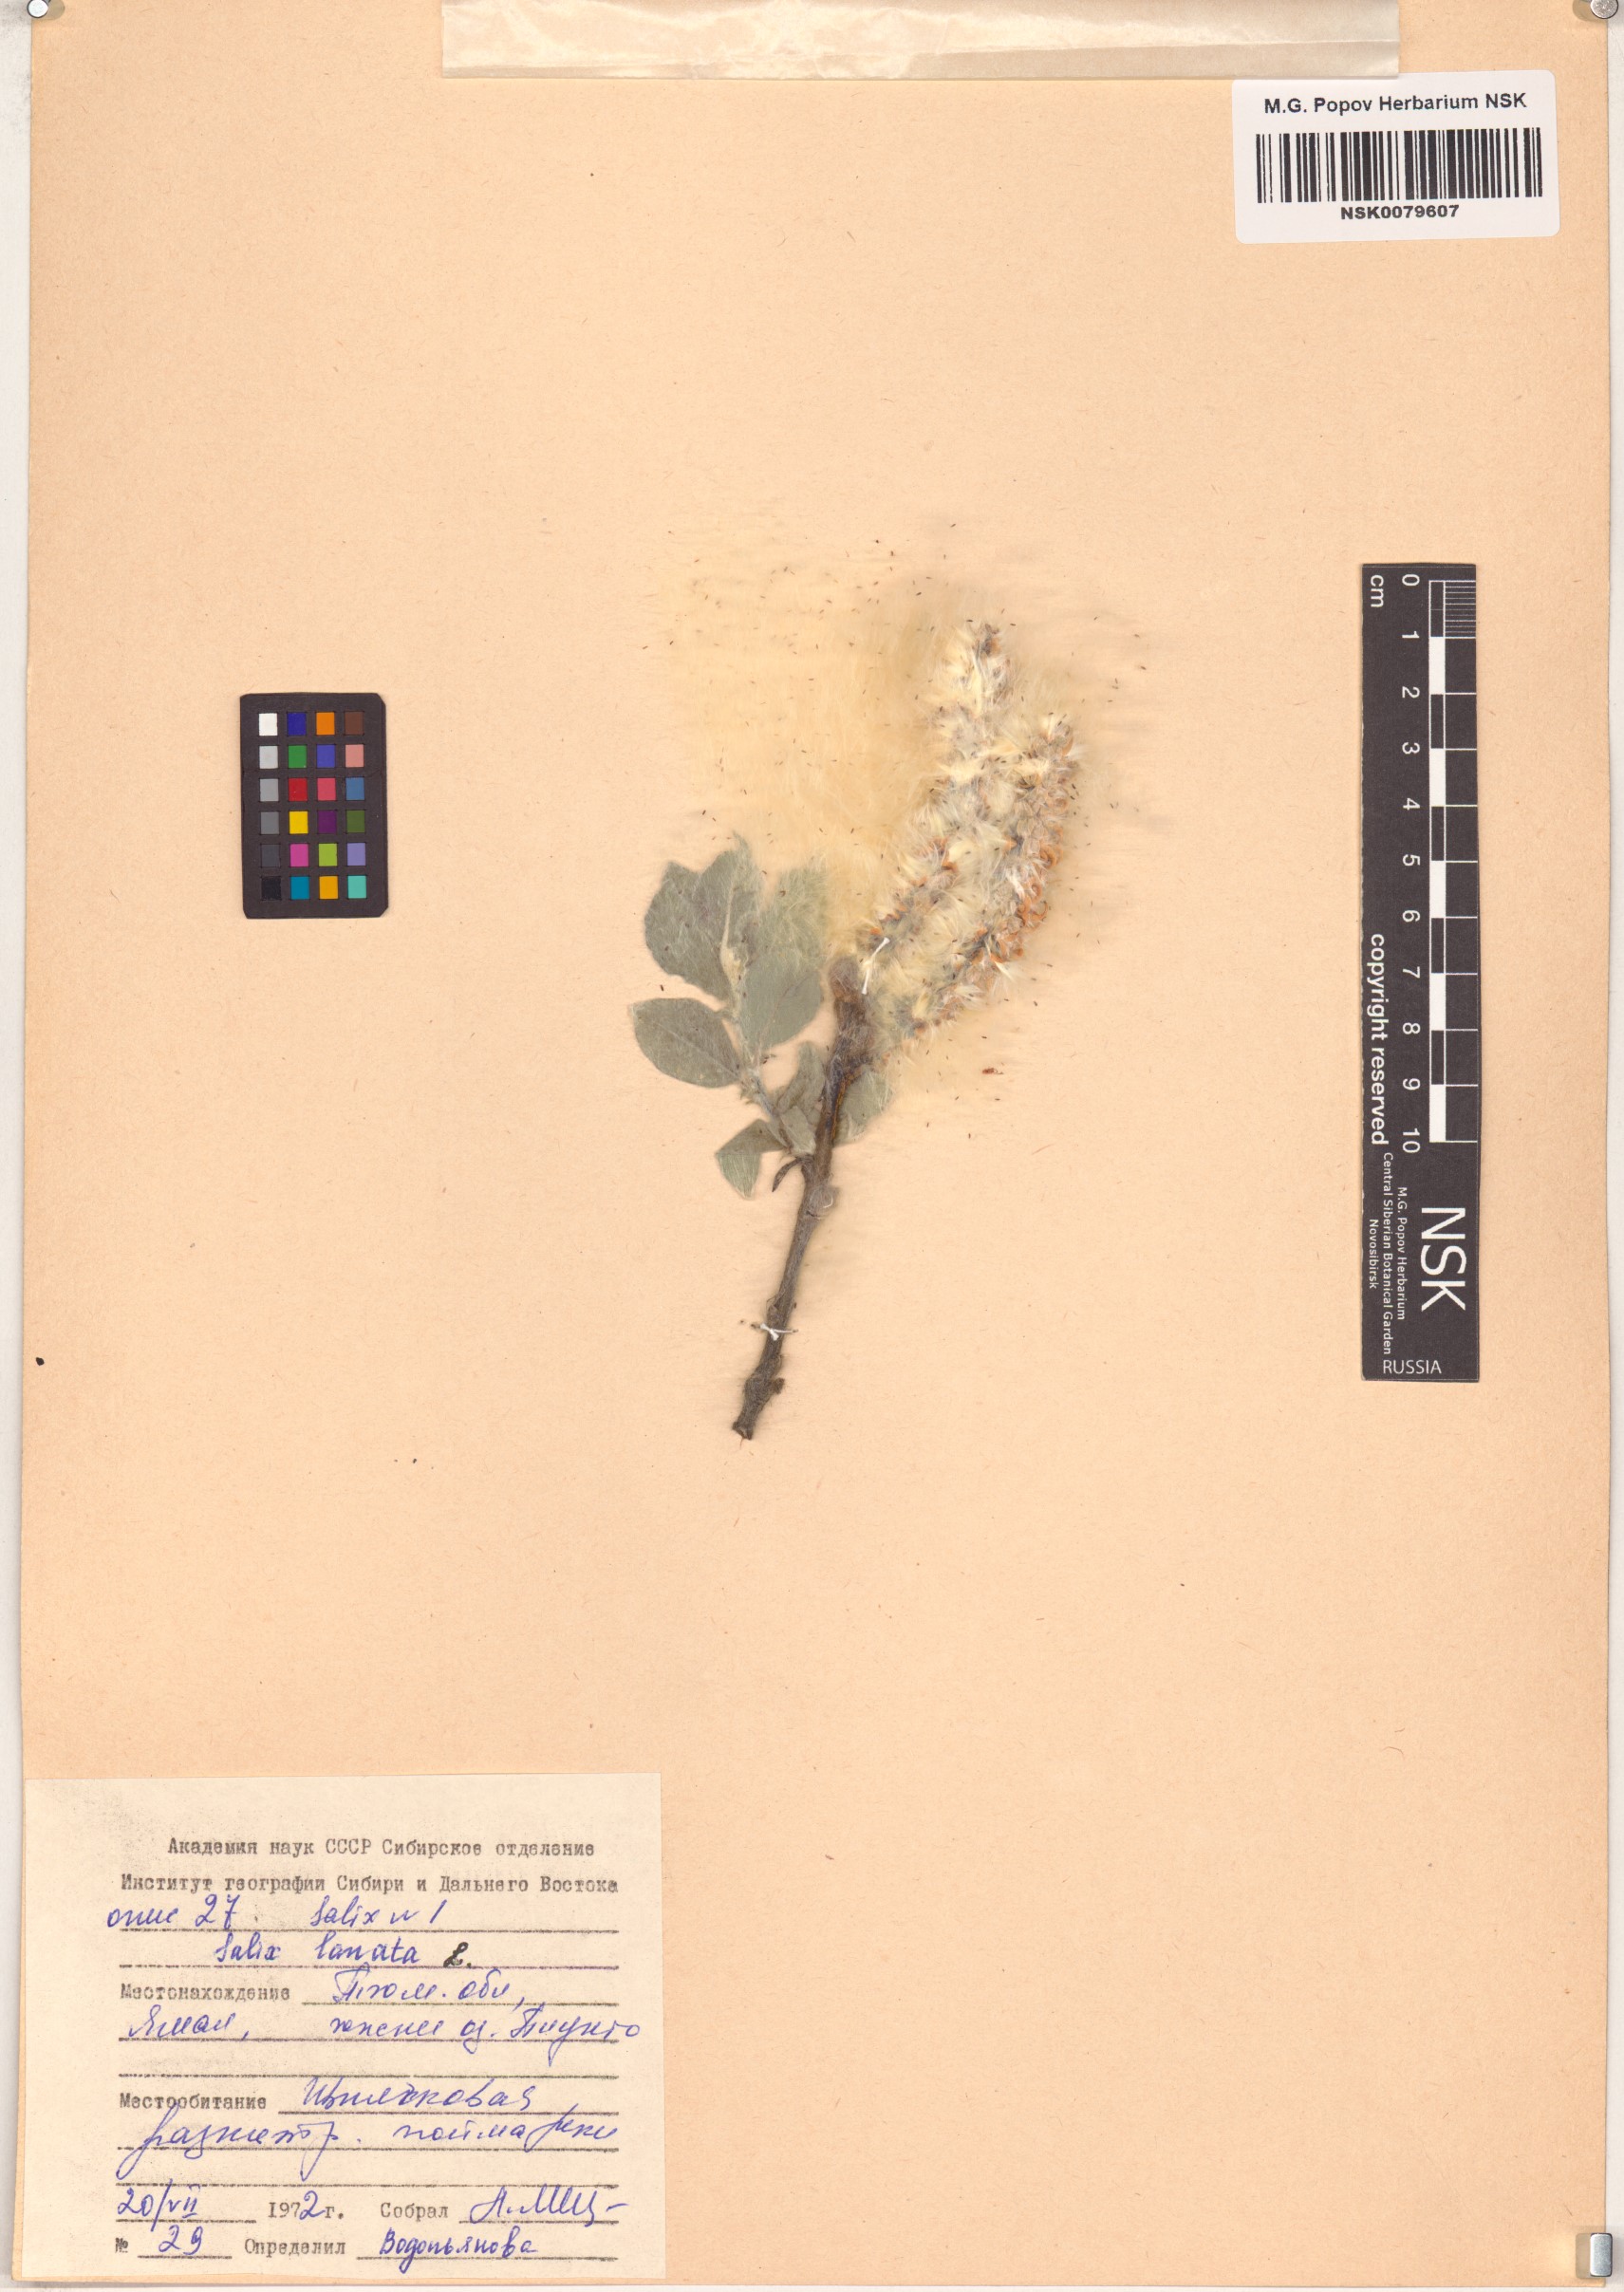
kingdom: Plantae
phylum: Tracheophyta
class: Magnoliopsida
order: Malpighiales
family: Salicaceae
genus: Salix
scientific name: Salix lanata
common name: Woolly willow
